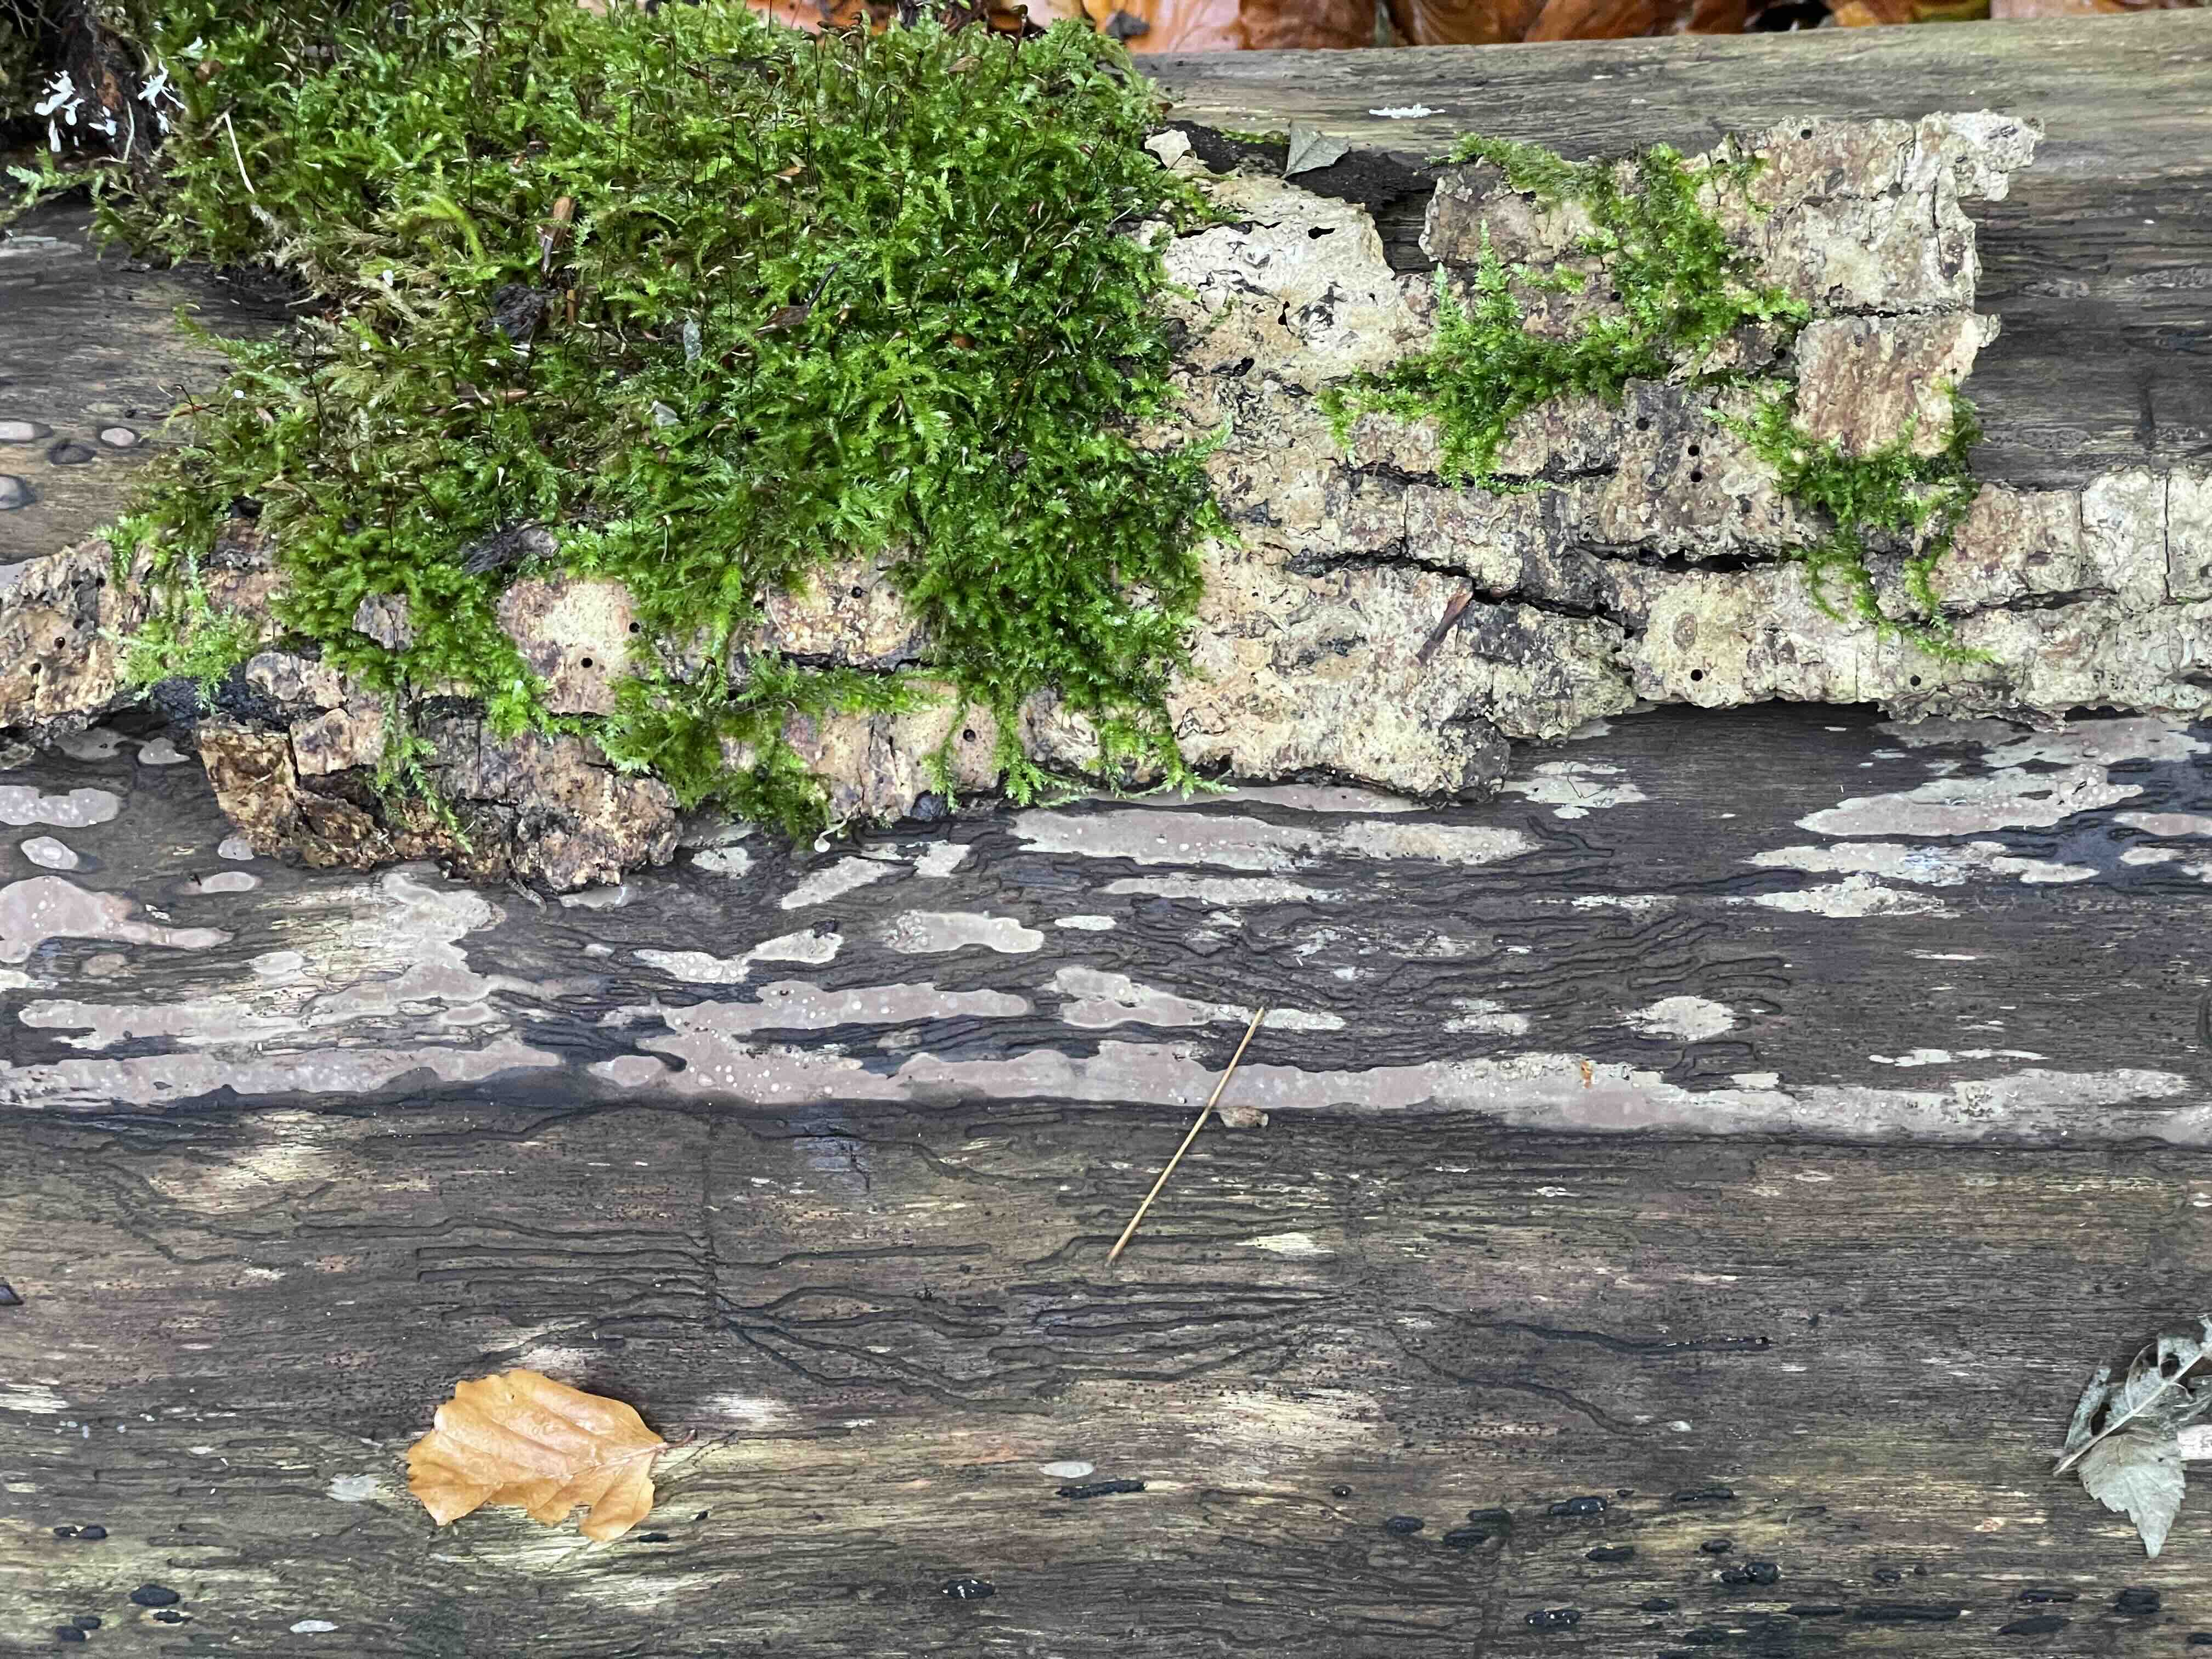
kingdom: Fungi
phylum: Ascomycota
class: Sordariomycetes
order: Xylariales
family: Hypoxylaceae
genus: Hypoxylon
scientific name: Hypoxylon petriniae
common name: nedsænket kulbær
